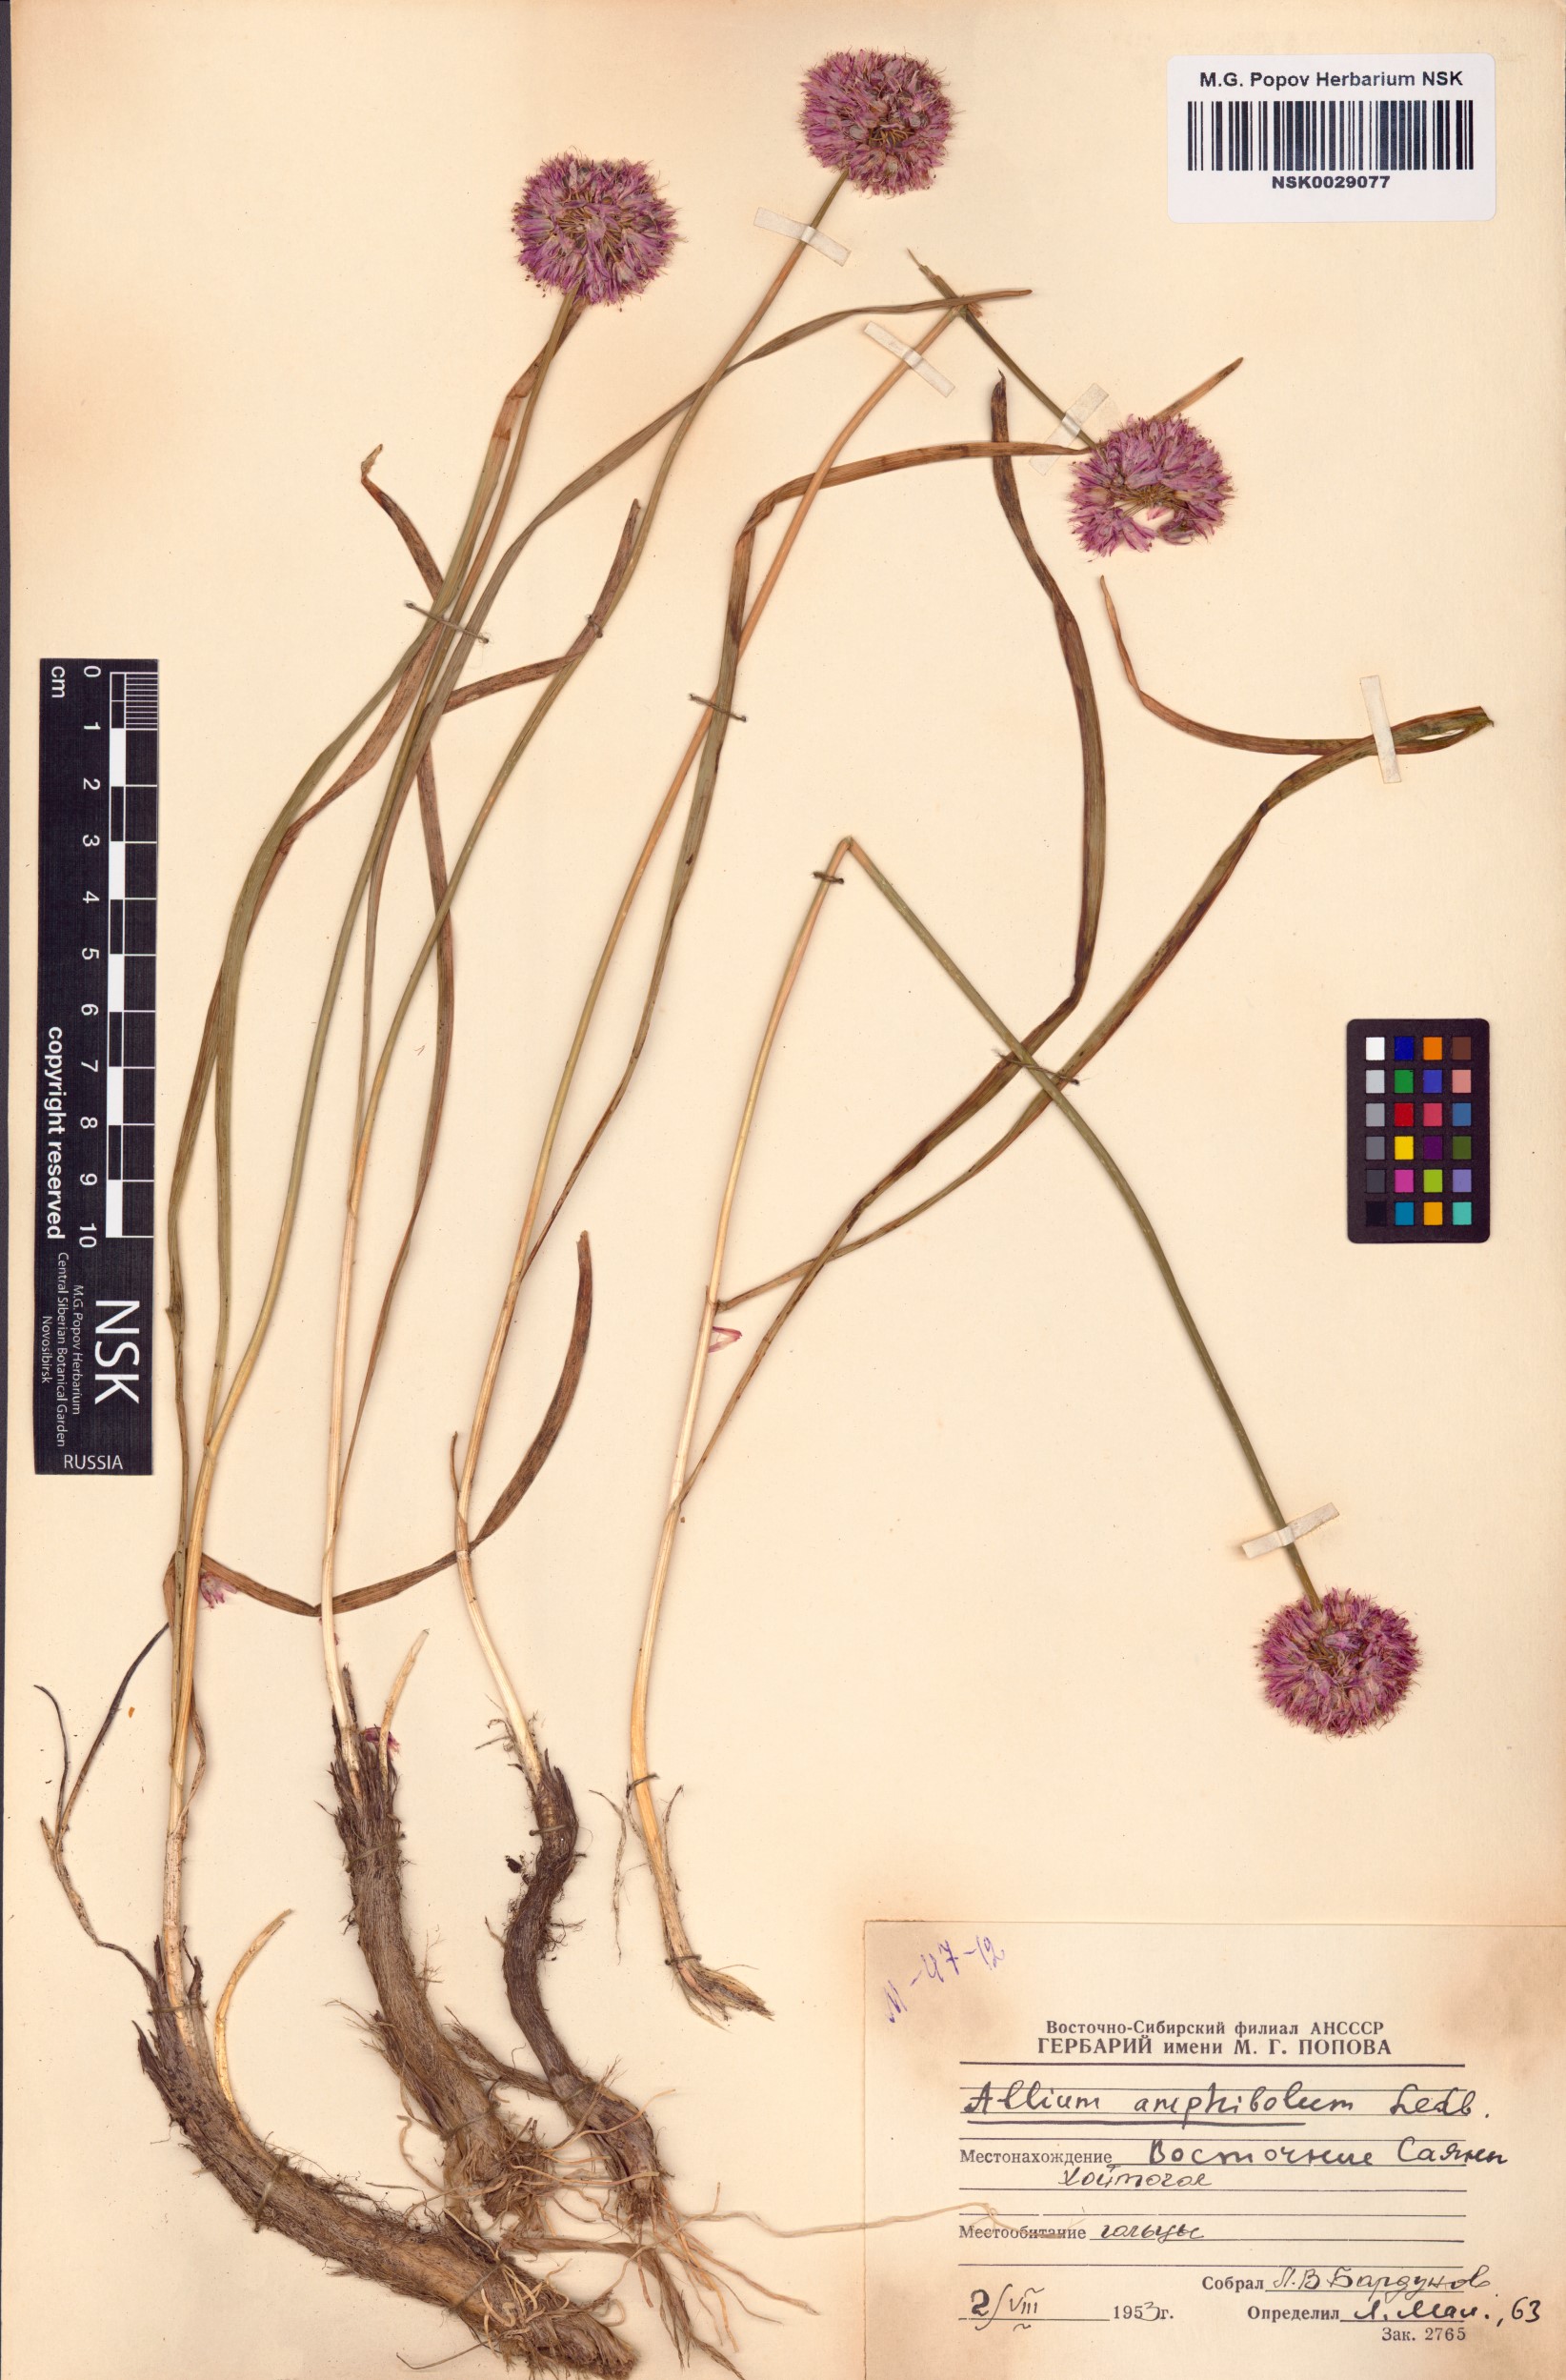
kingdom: Plantae
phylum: Tracheophyta
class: Liliopsida
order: Asparagales
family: Amaryllidaceae
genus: Allium
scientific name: Allium amphibolum
